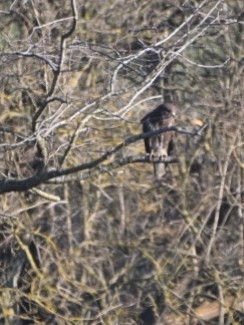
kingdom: Animalia
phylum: Chordata
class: Aves
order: Accipitriformes
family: Accipitridae
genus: Buteo
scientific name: Buteo buteo
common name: Musvåge
